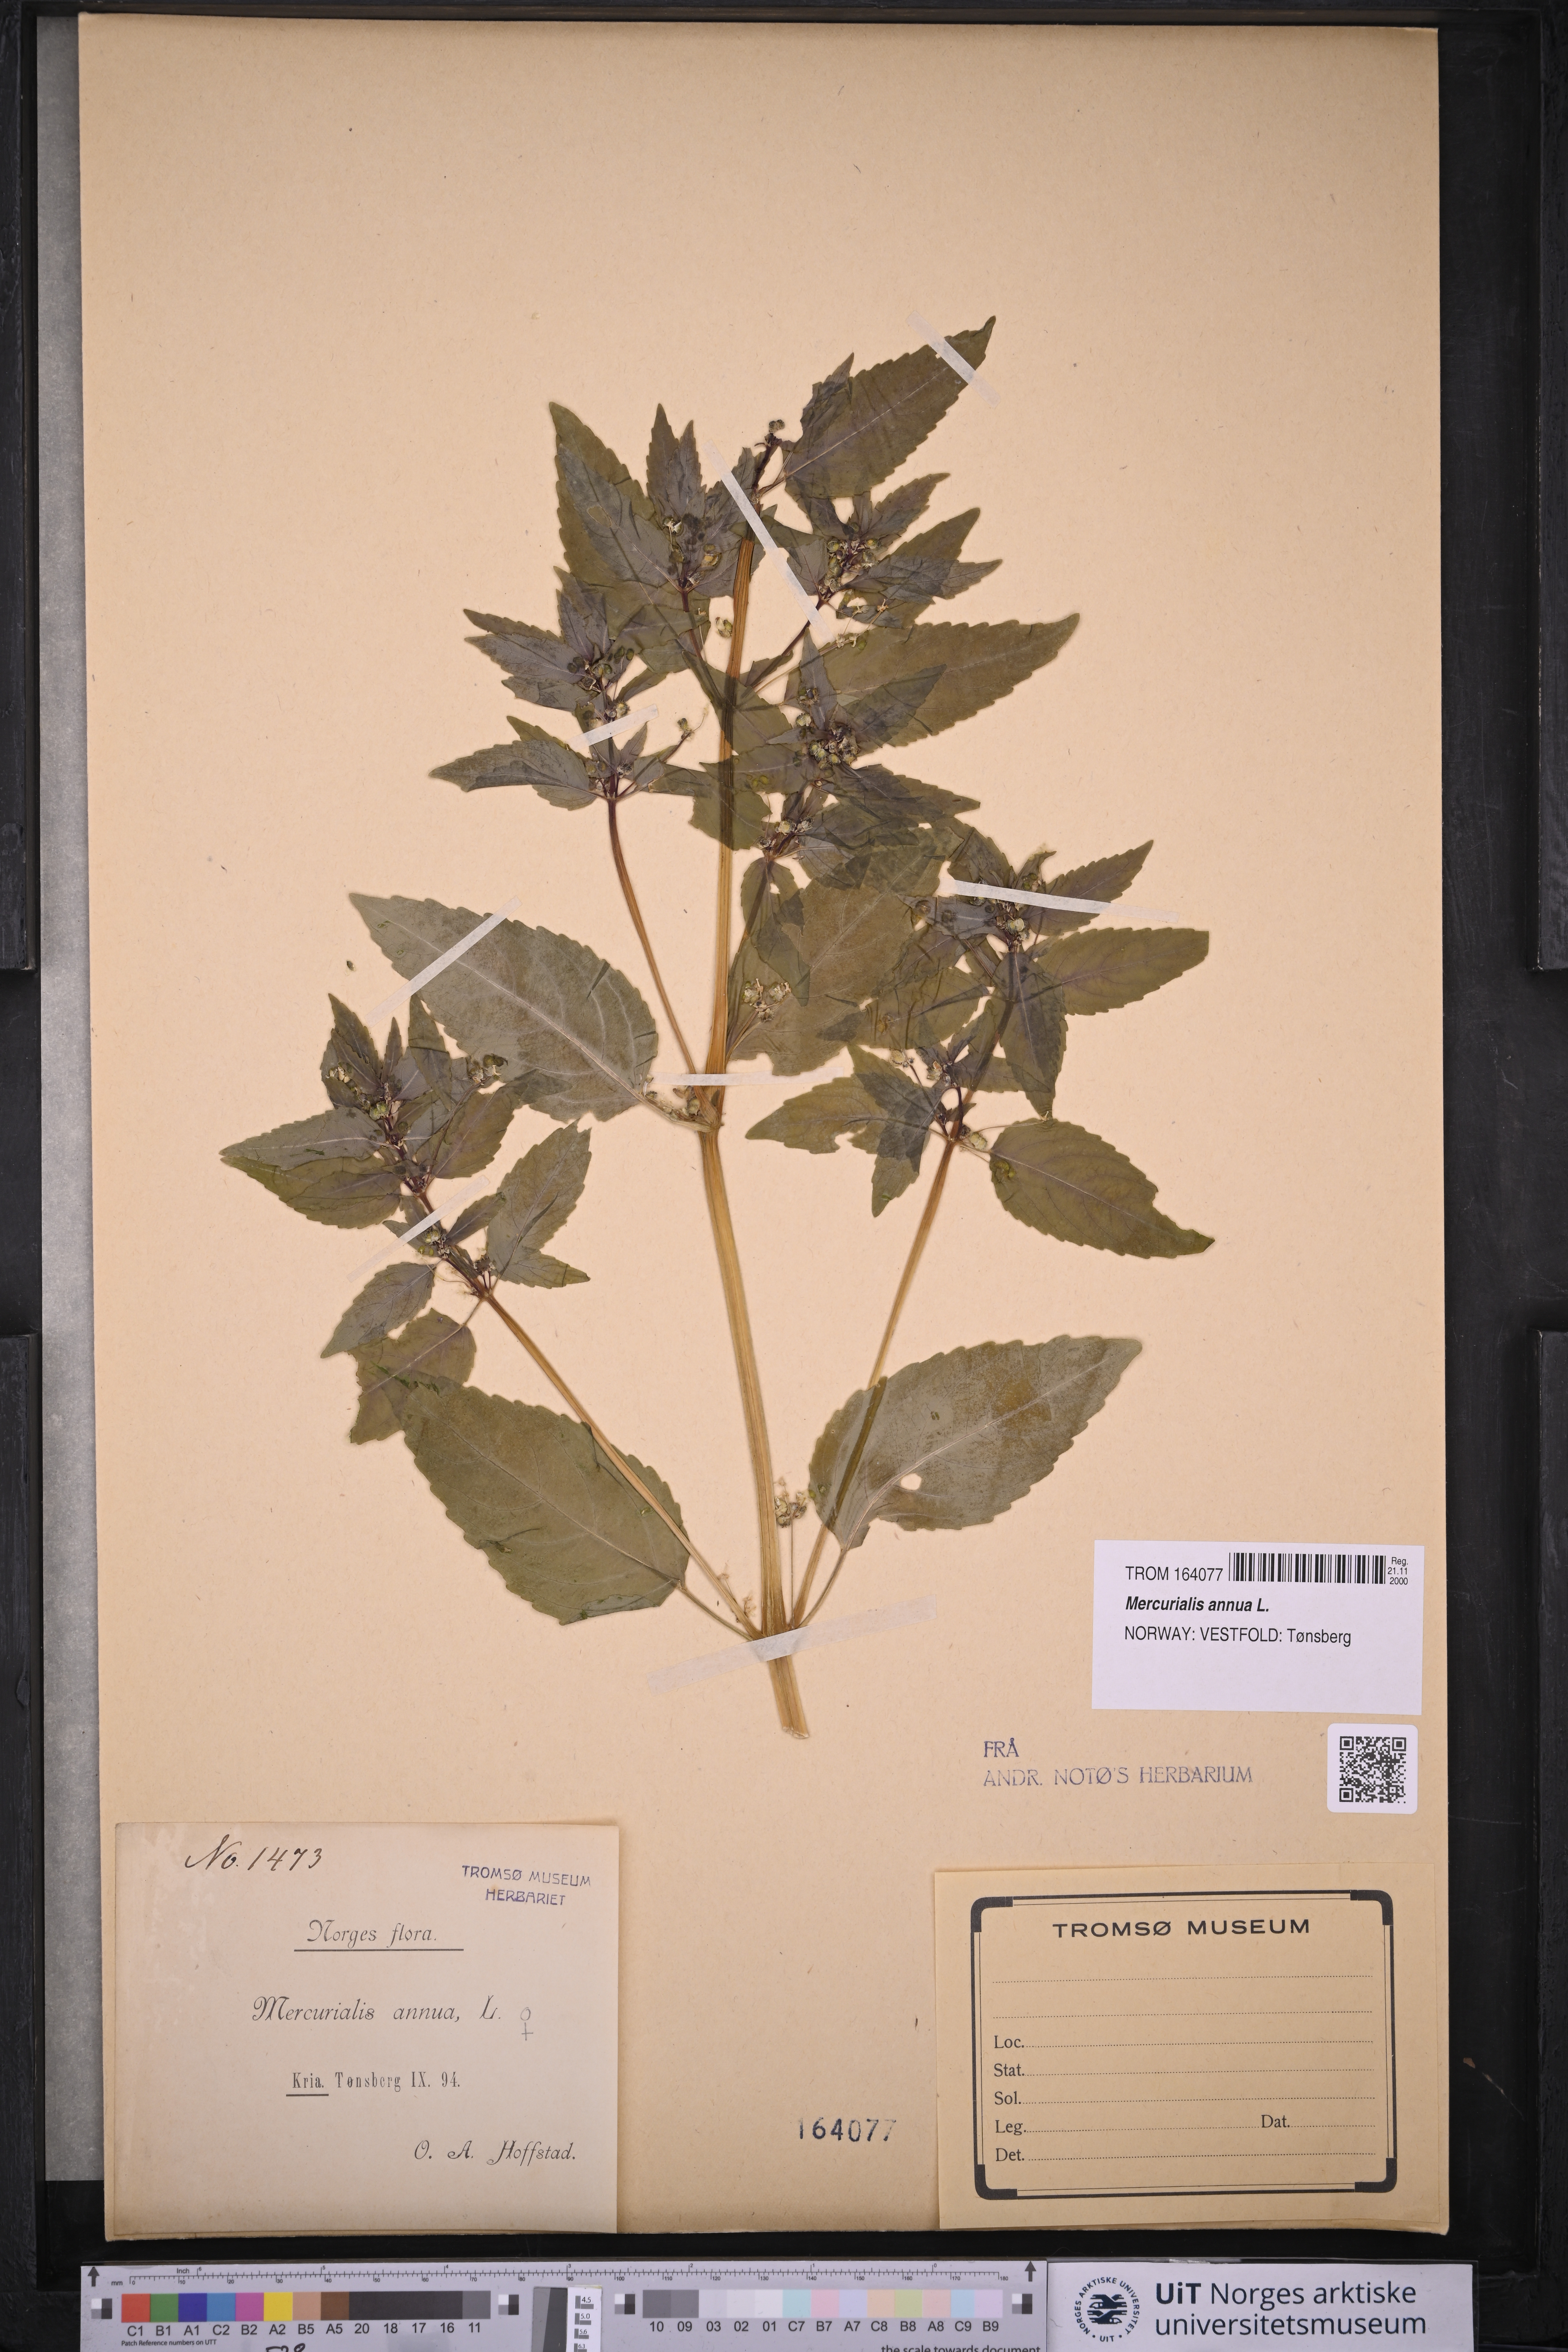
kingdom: Plantae
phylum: Tracheophyta
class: Magnoliopsida
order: Malpighiales
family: Euphorbiaceae
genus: Mercurialis
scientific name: Mercurialis annua
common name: Annual mercury
